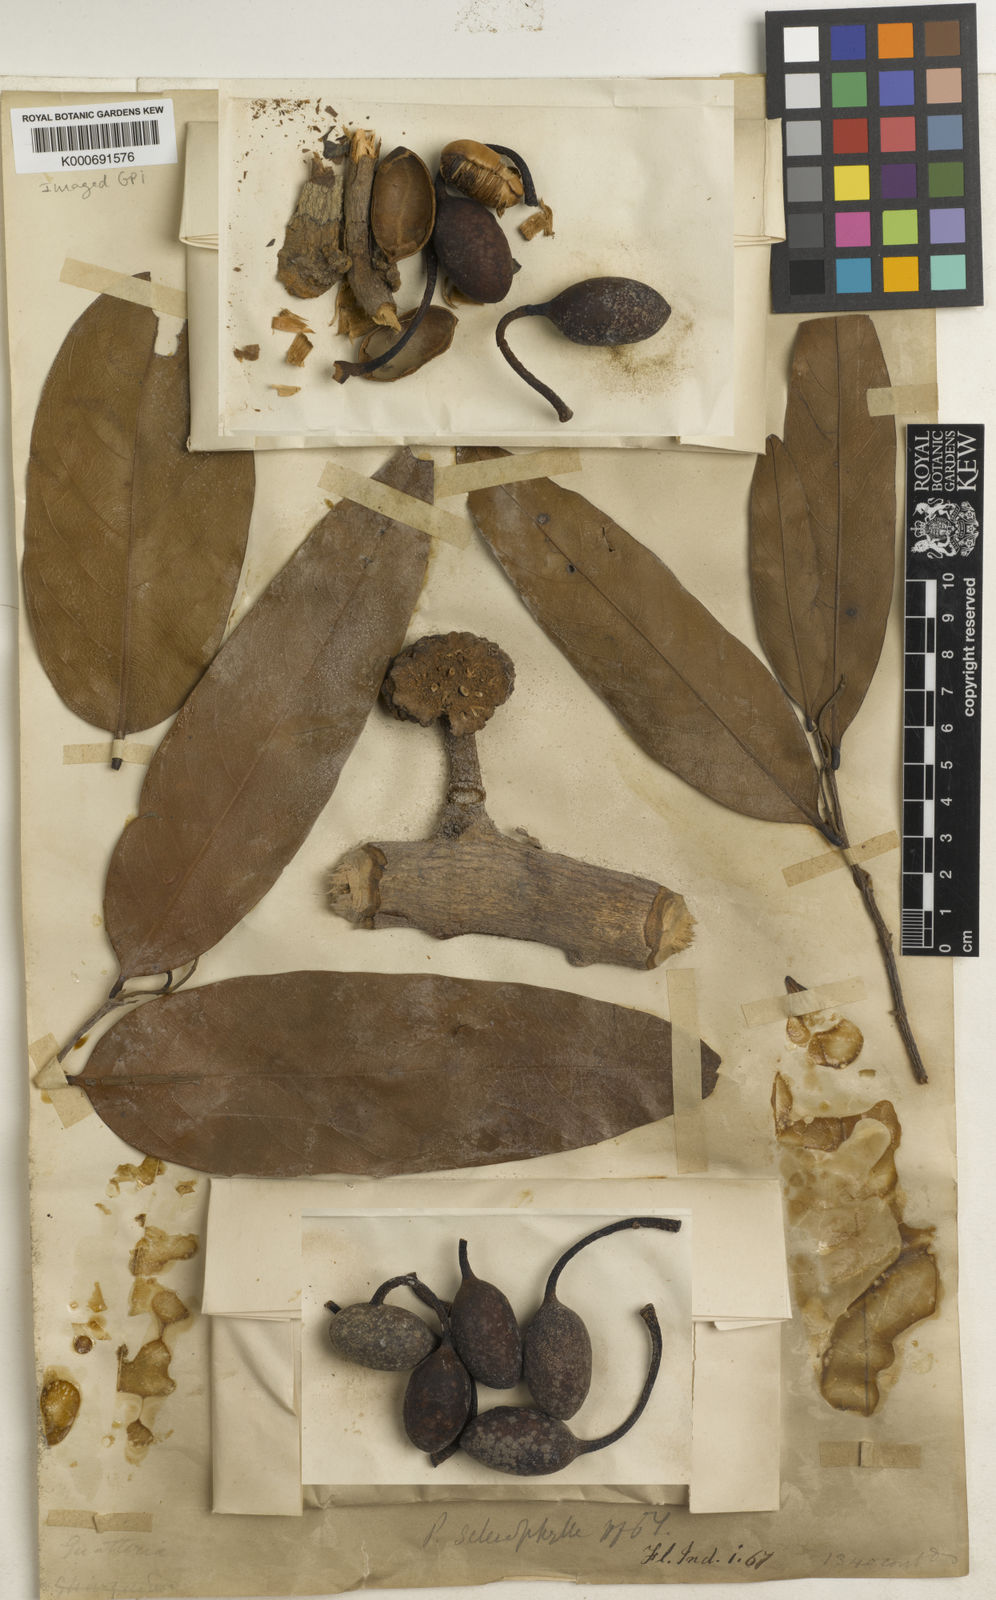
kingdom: Plantae
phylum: Tracheophyta
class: Magnoliopsida
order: Magnoliales
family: Annonaceae
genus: Polyalthia
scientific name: Polyalthia sclerophylla
